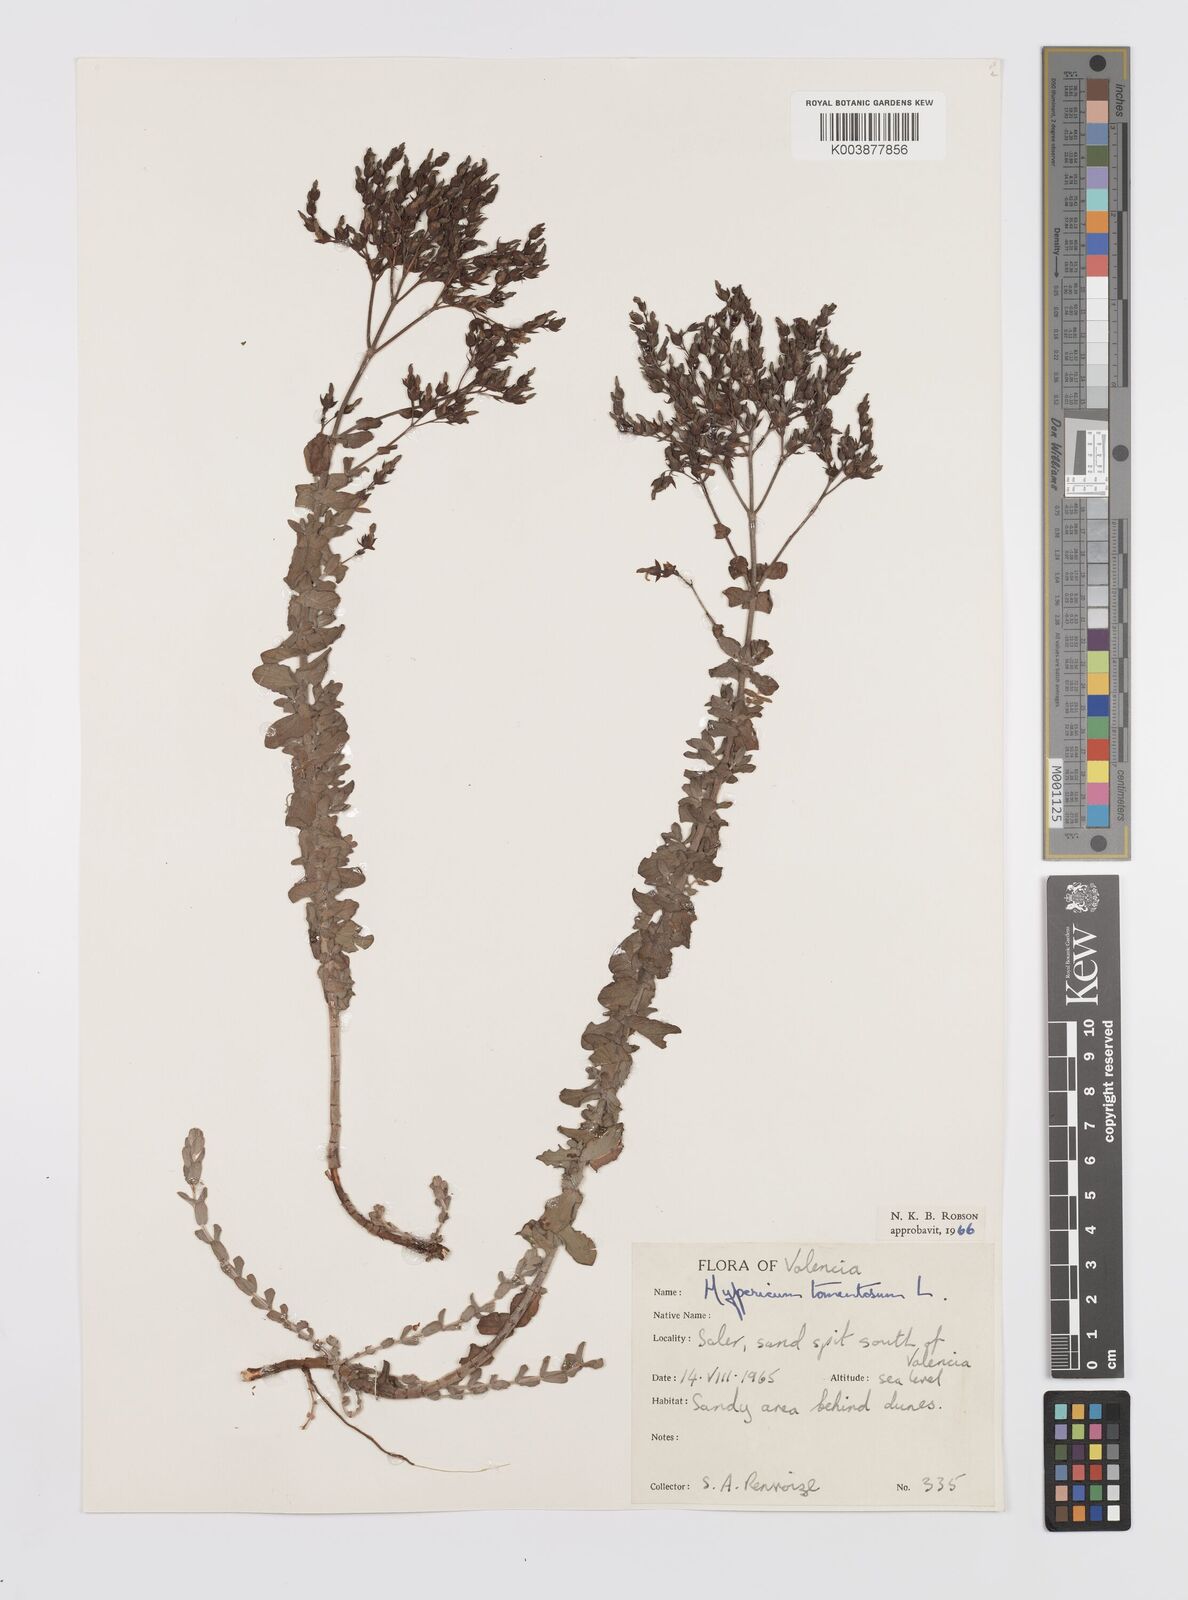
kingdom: Plantae
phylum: Tracheophyta
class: Magnoliopsida
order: Malpighiales
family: Hypericaceae
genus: Hypericum
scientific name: Hypericum tomentosum
